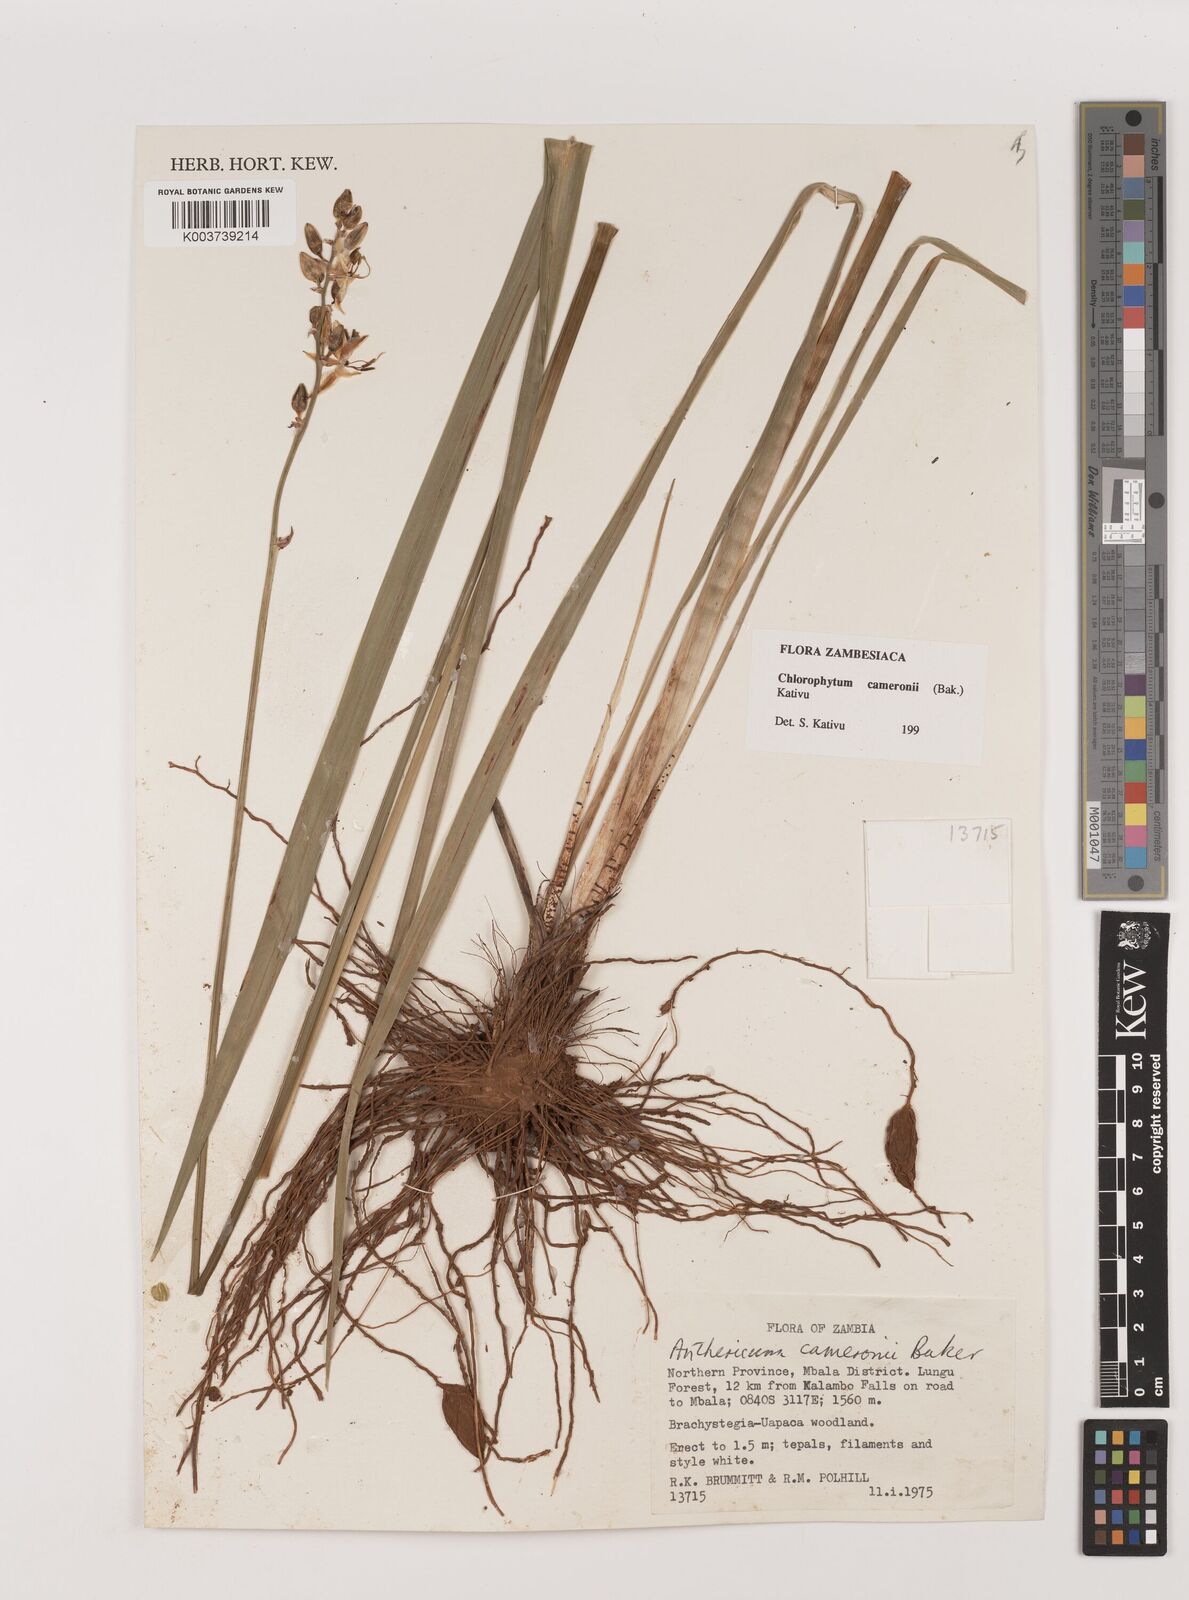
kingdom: Plantae
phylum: Tracheophyta
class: Liliopsida
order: Asparagales
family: Asparagaceae
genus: Chlorophytum
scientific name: Chlorophytum cameronii
